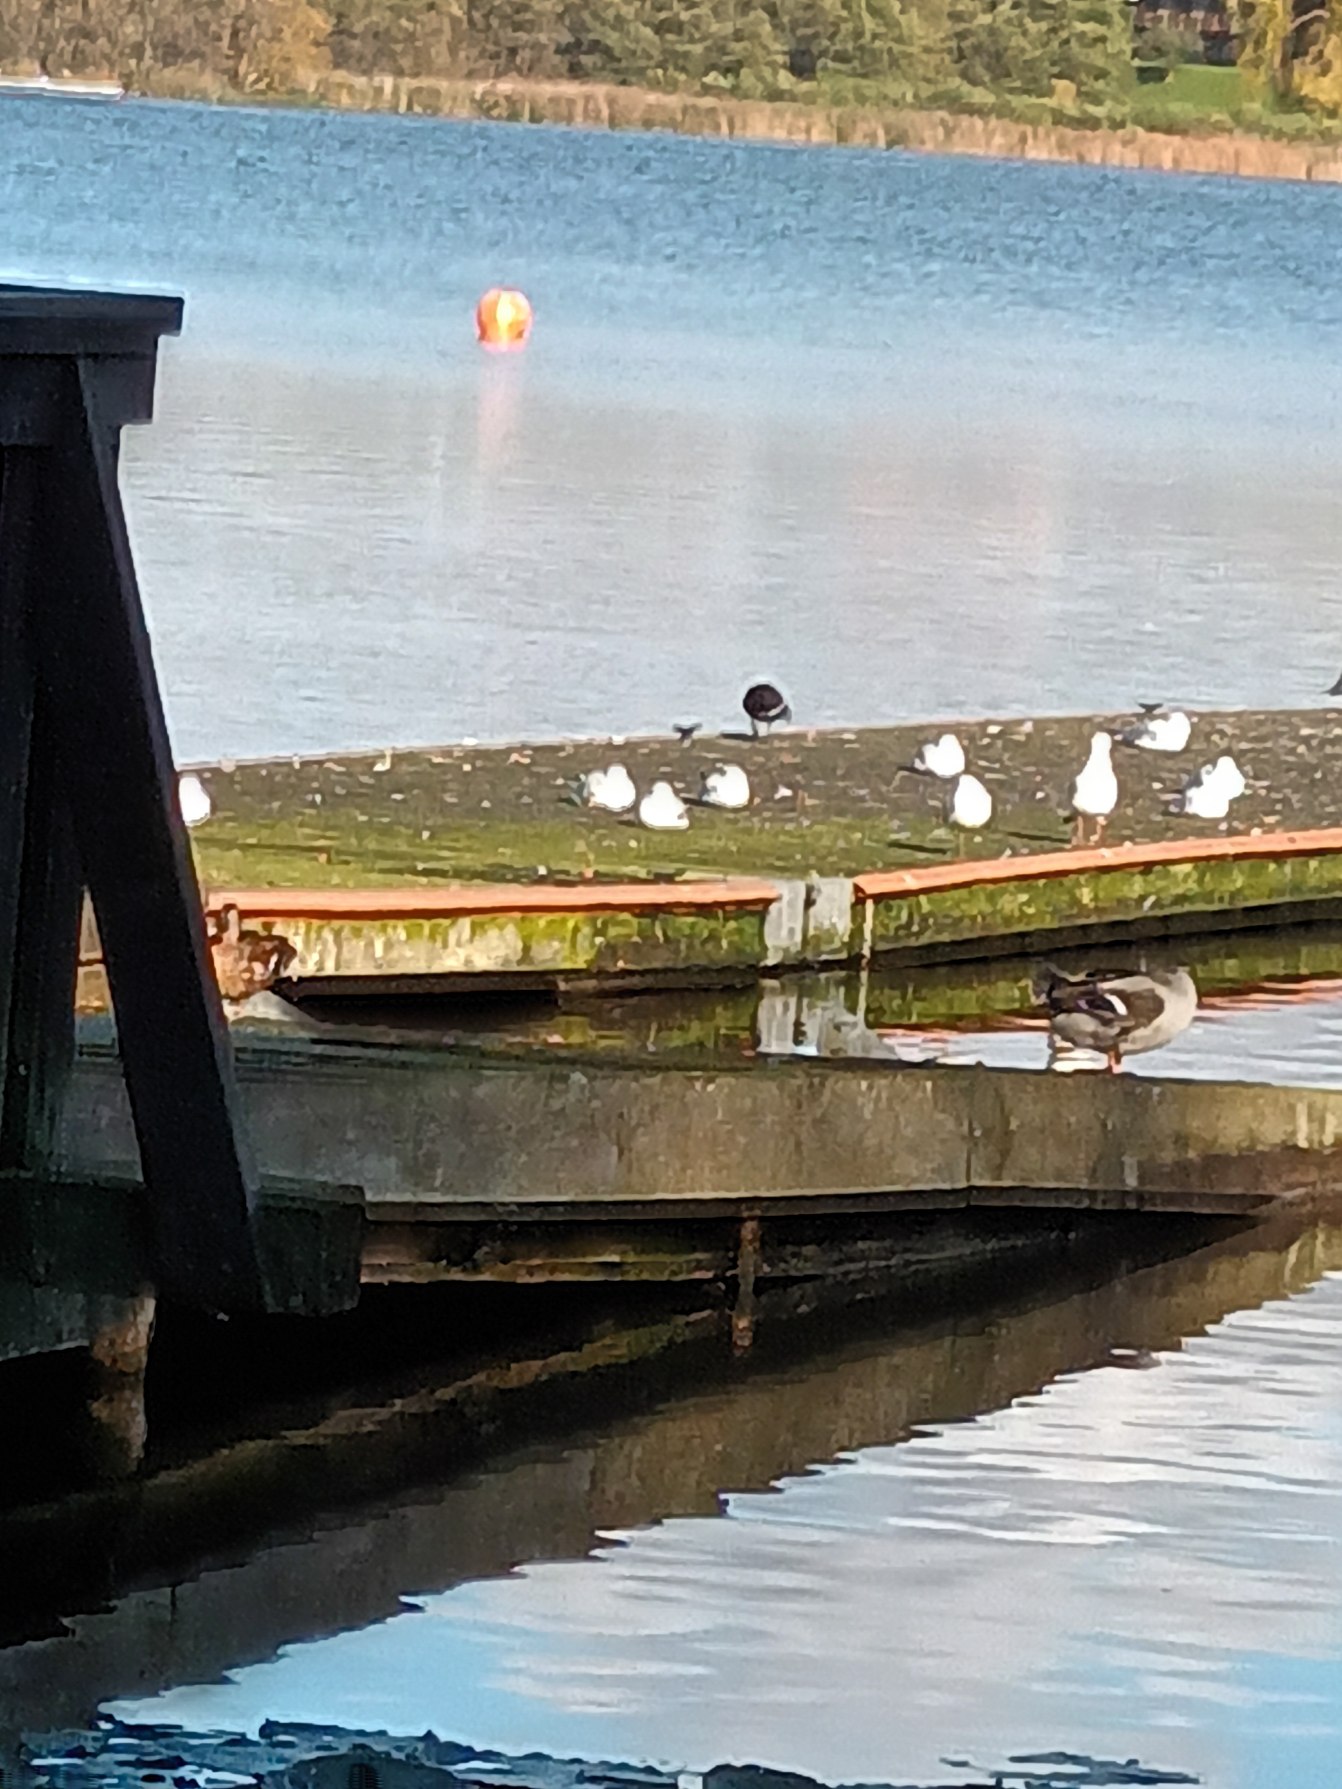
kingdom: Animalia
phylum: Chordata
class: Aves
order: Gruiformes
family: Rallidae
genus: Gallinula
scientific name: Gallinula chloropus
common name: Grønbenet rørhøne
